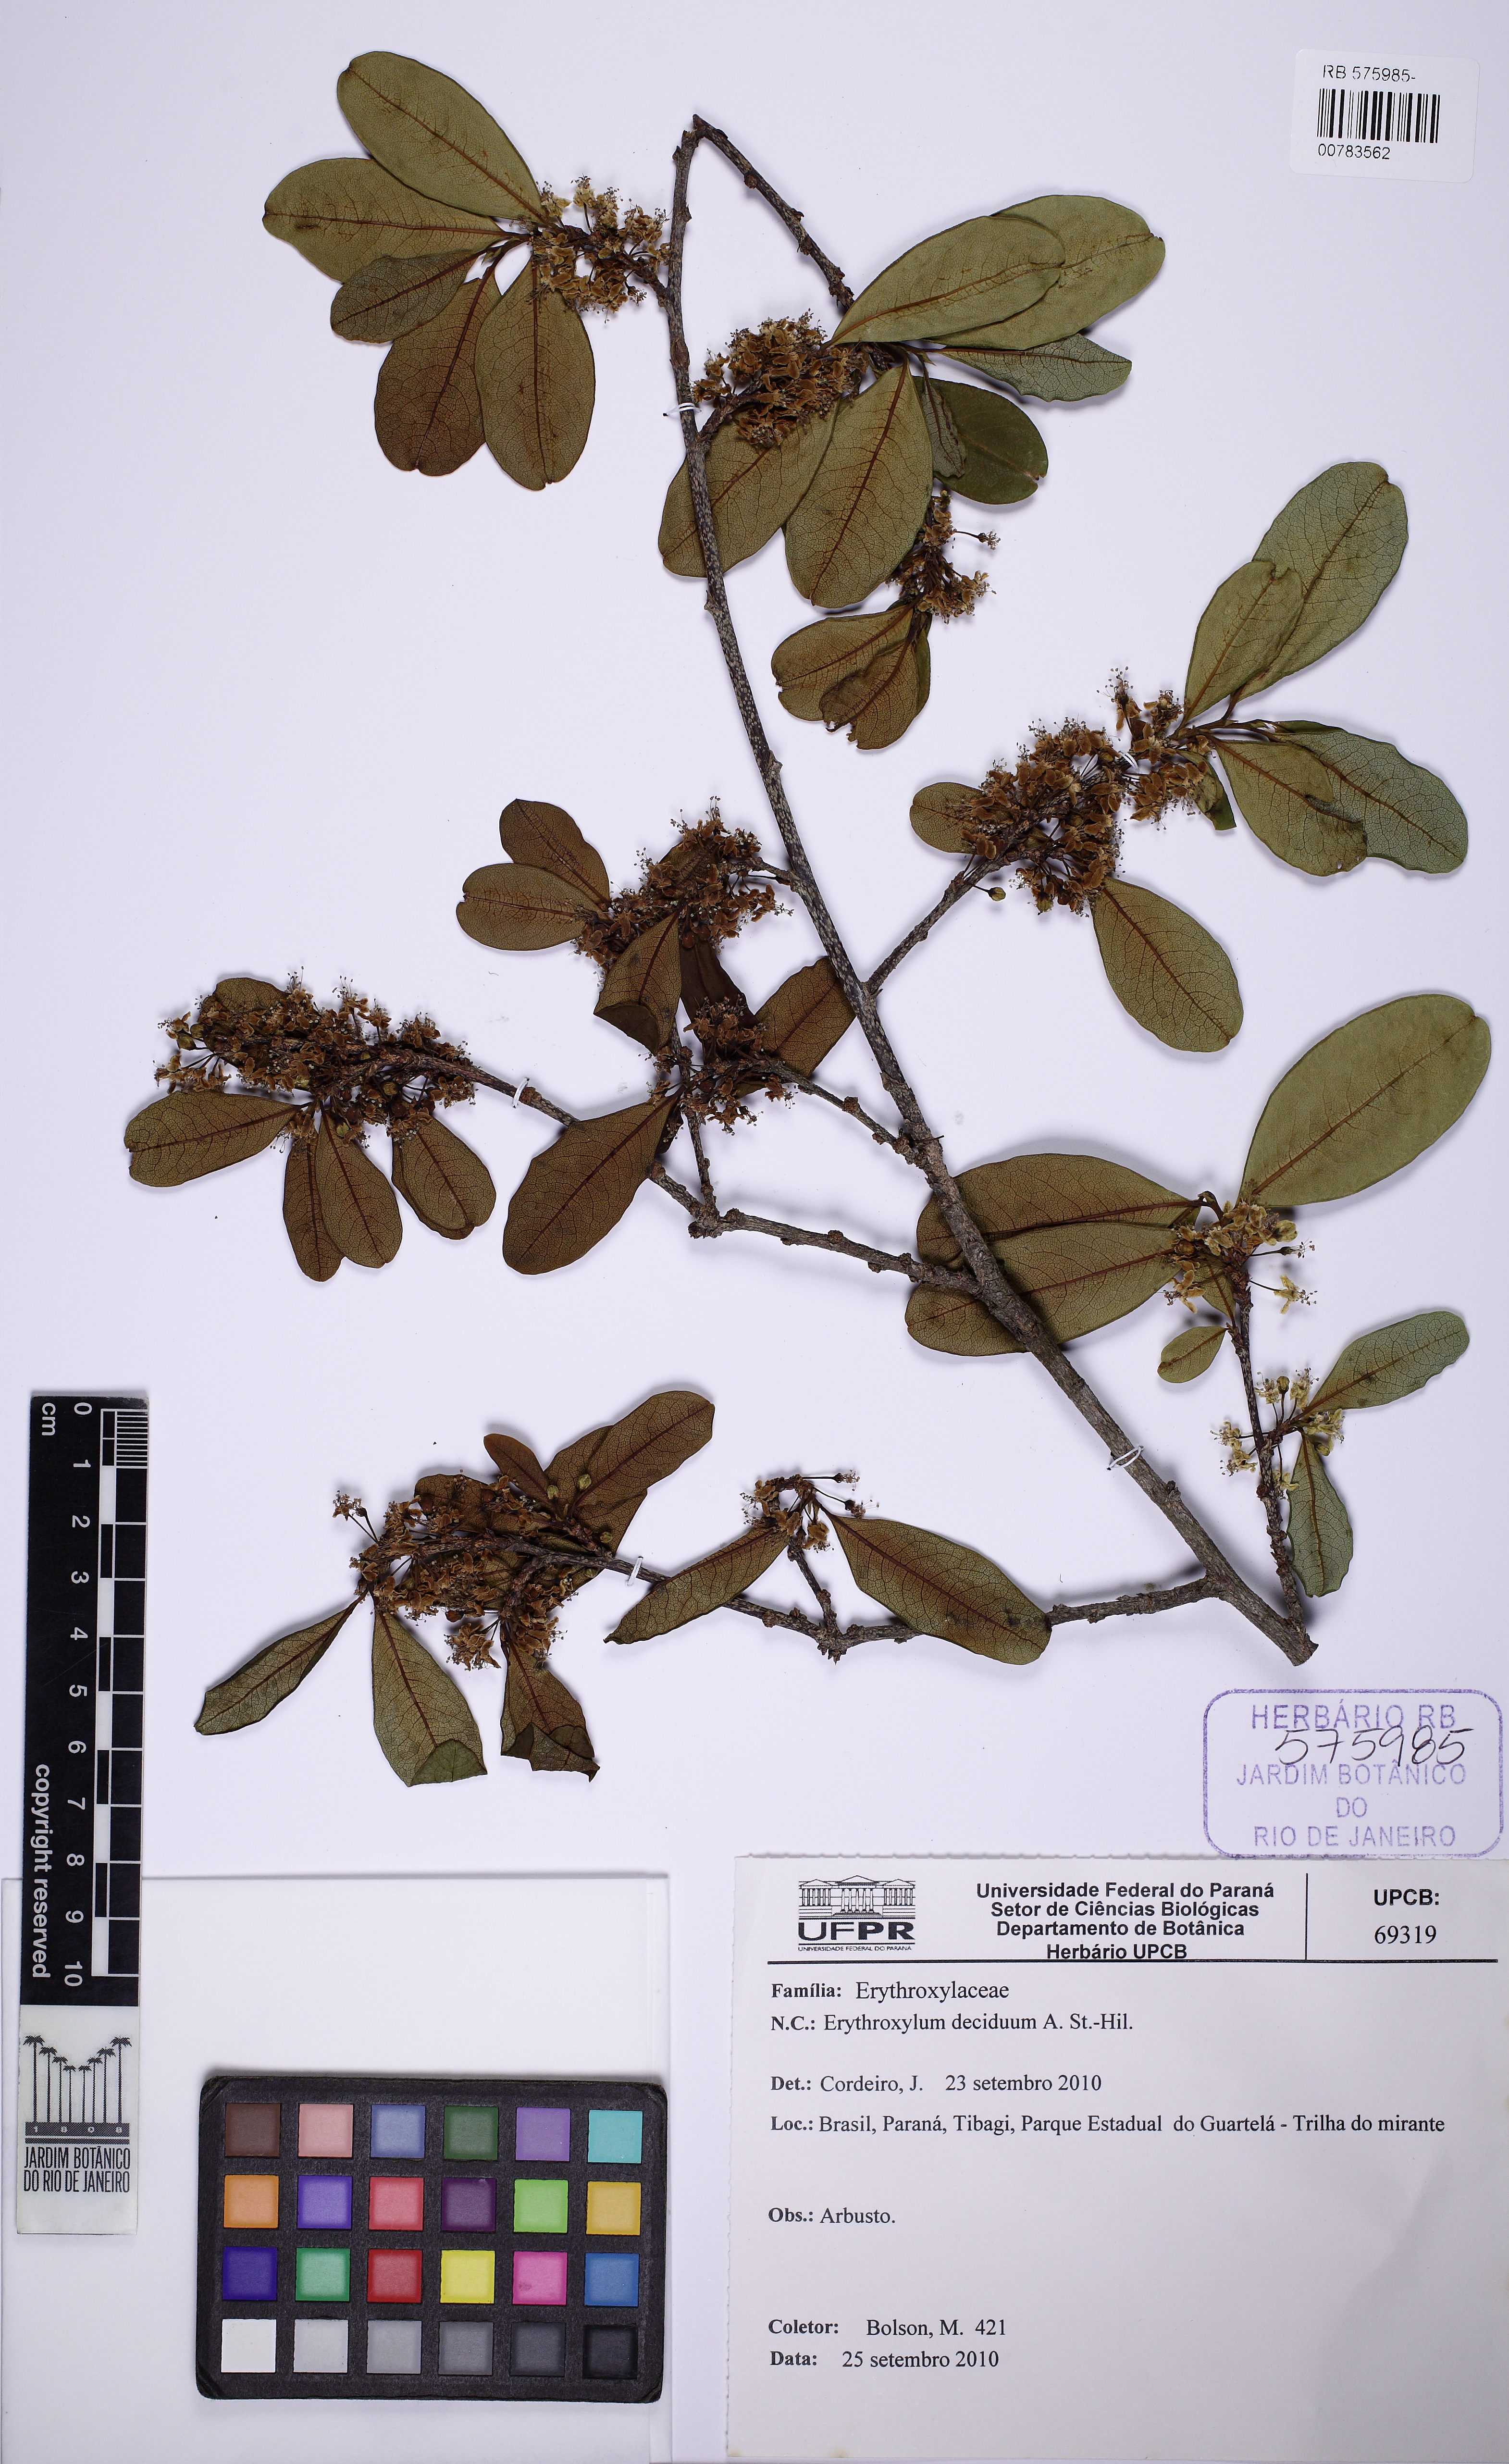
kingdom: Plantae
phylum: Tracheophyta
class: Magnoliopsida
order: Malpighiales
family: Erythroxylaceae
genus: Erythroxylum
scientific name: Erythroxylum deciduum
